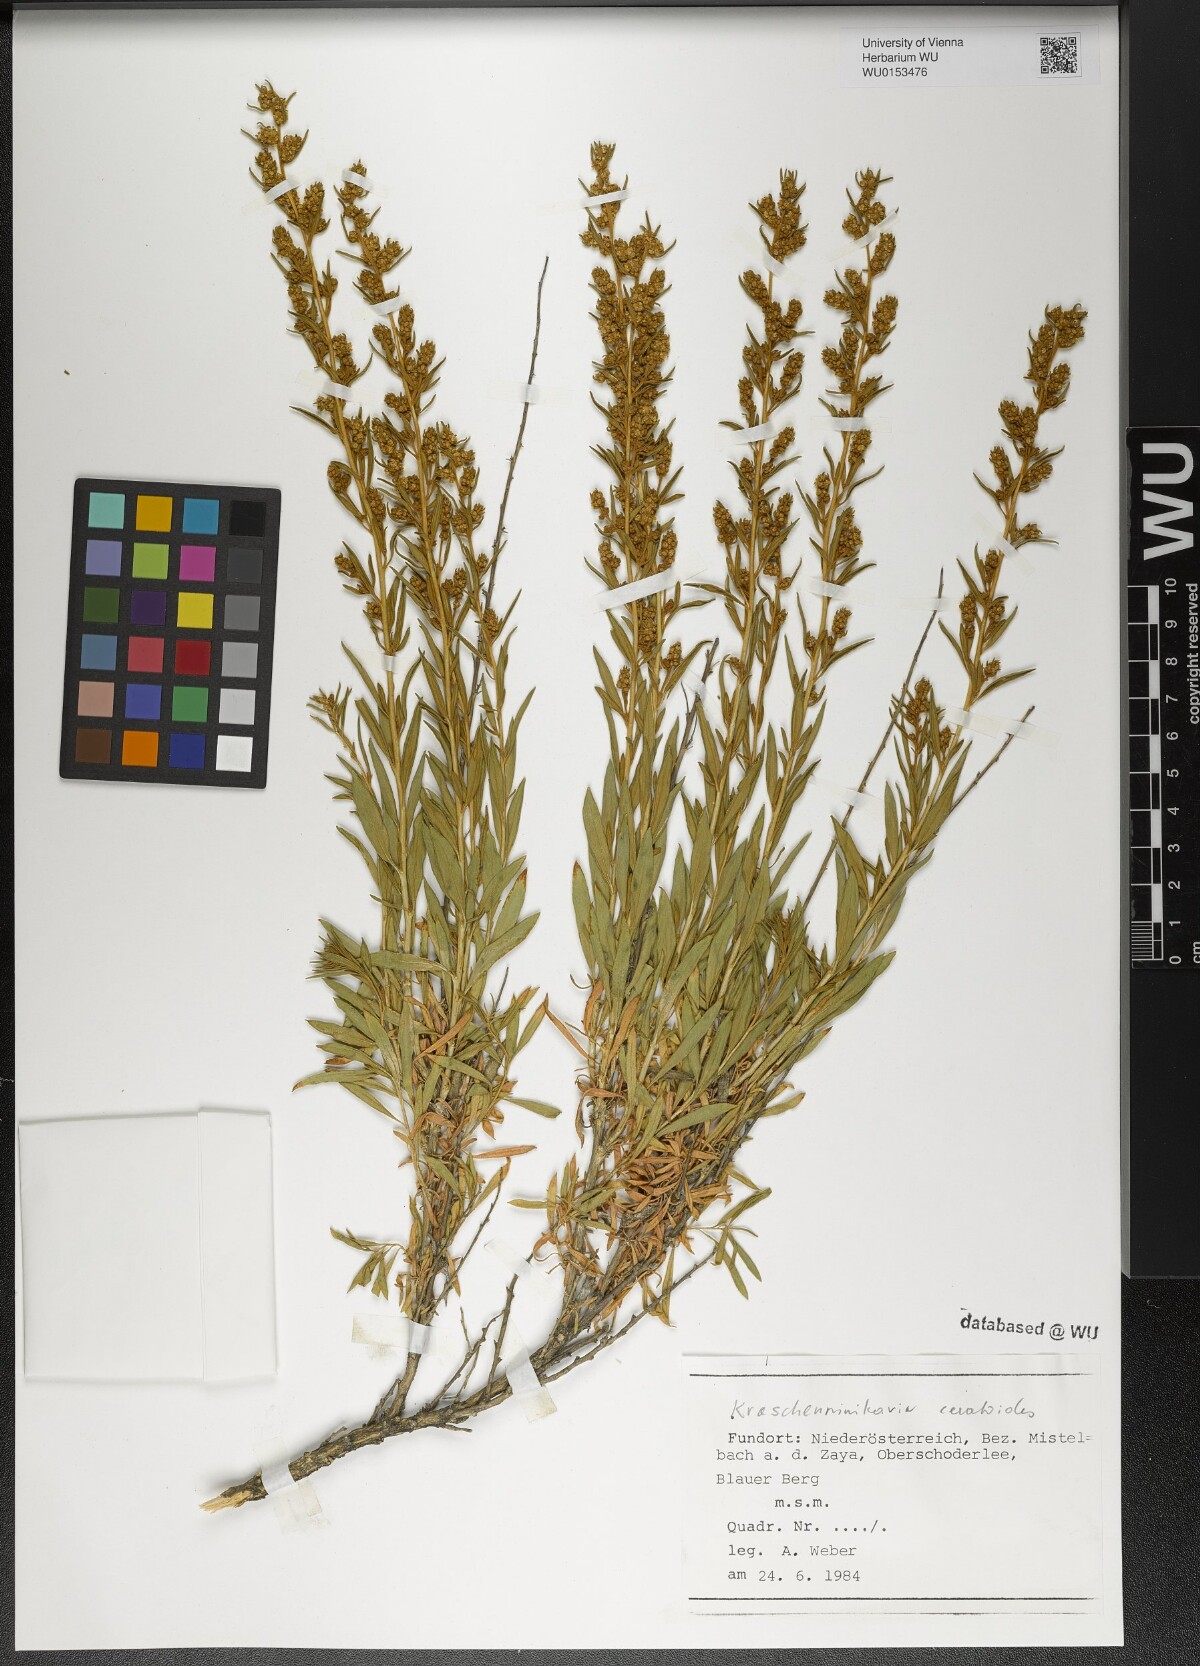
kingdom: Plantae
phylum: Tracheophyta
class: Magnoliopsida
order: Caryophyllales
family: Amaranthaceae
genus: Krascheninnikovia
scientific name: Krascheninnikovia ceratoides
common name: Pamirian winterfat
